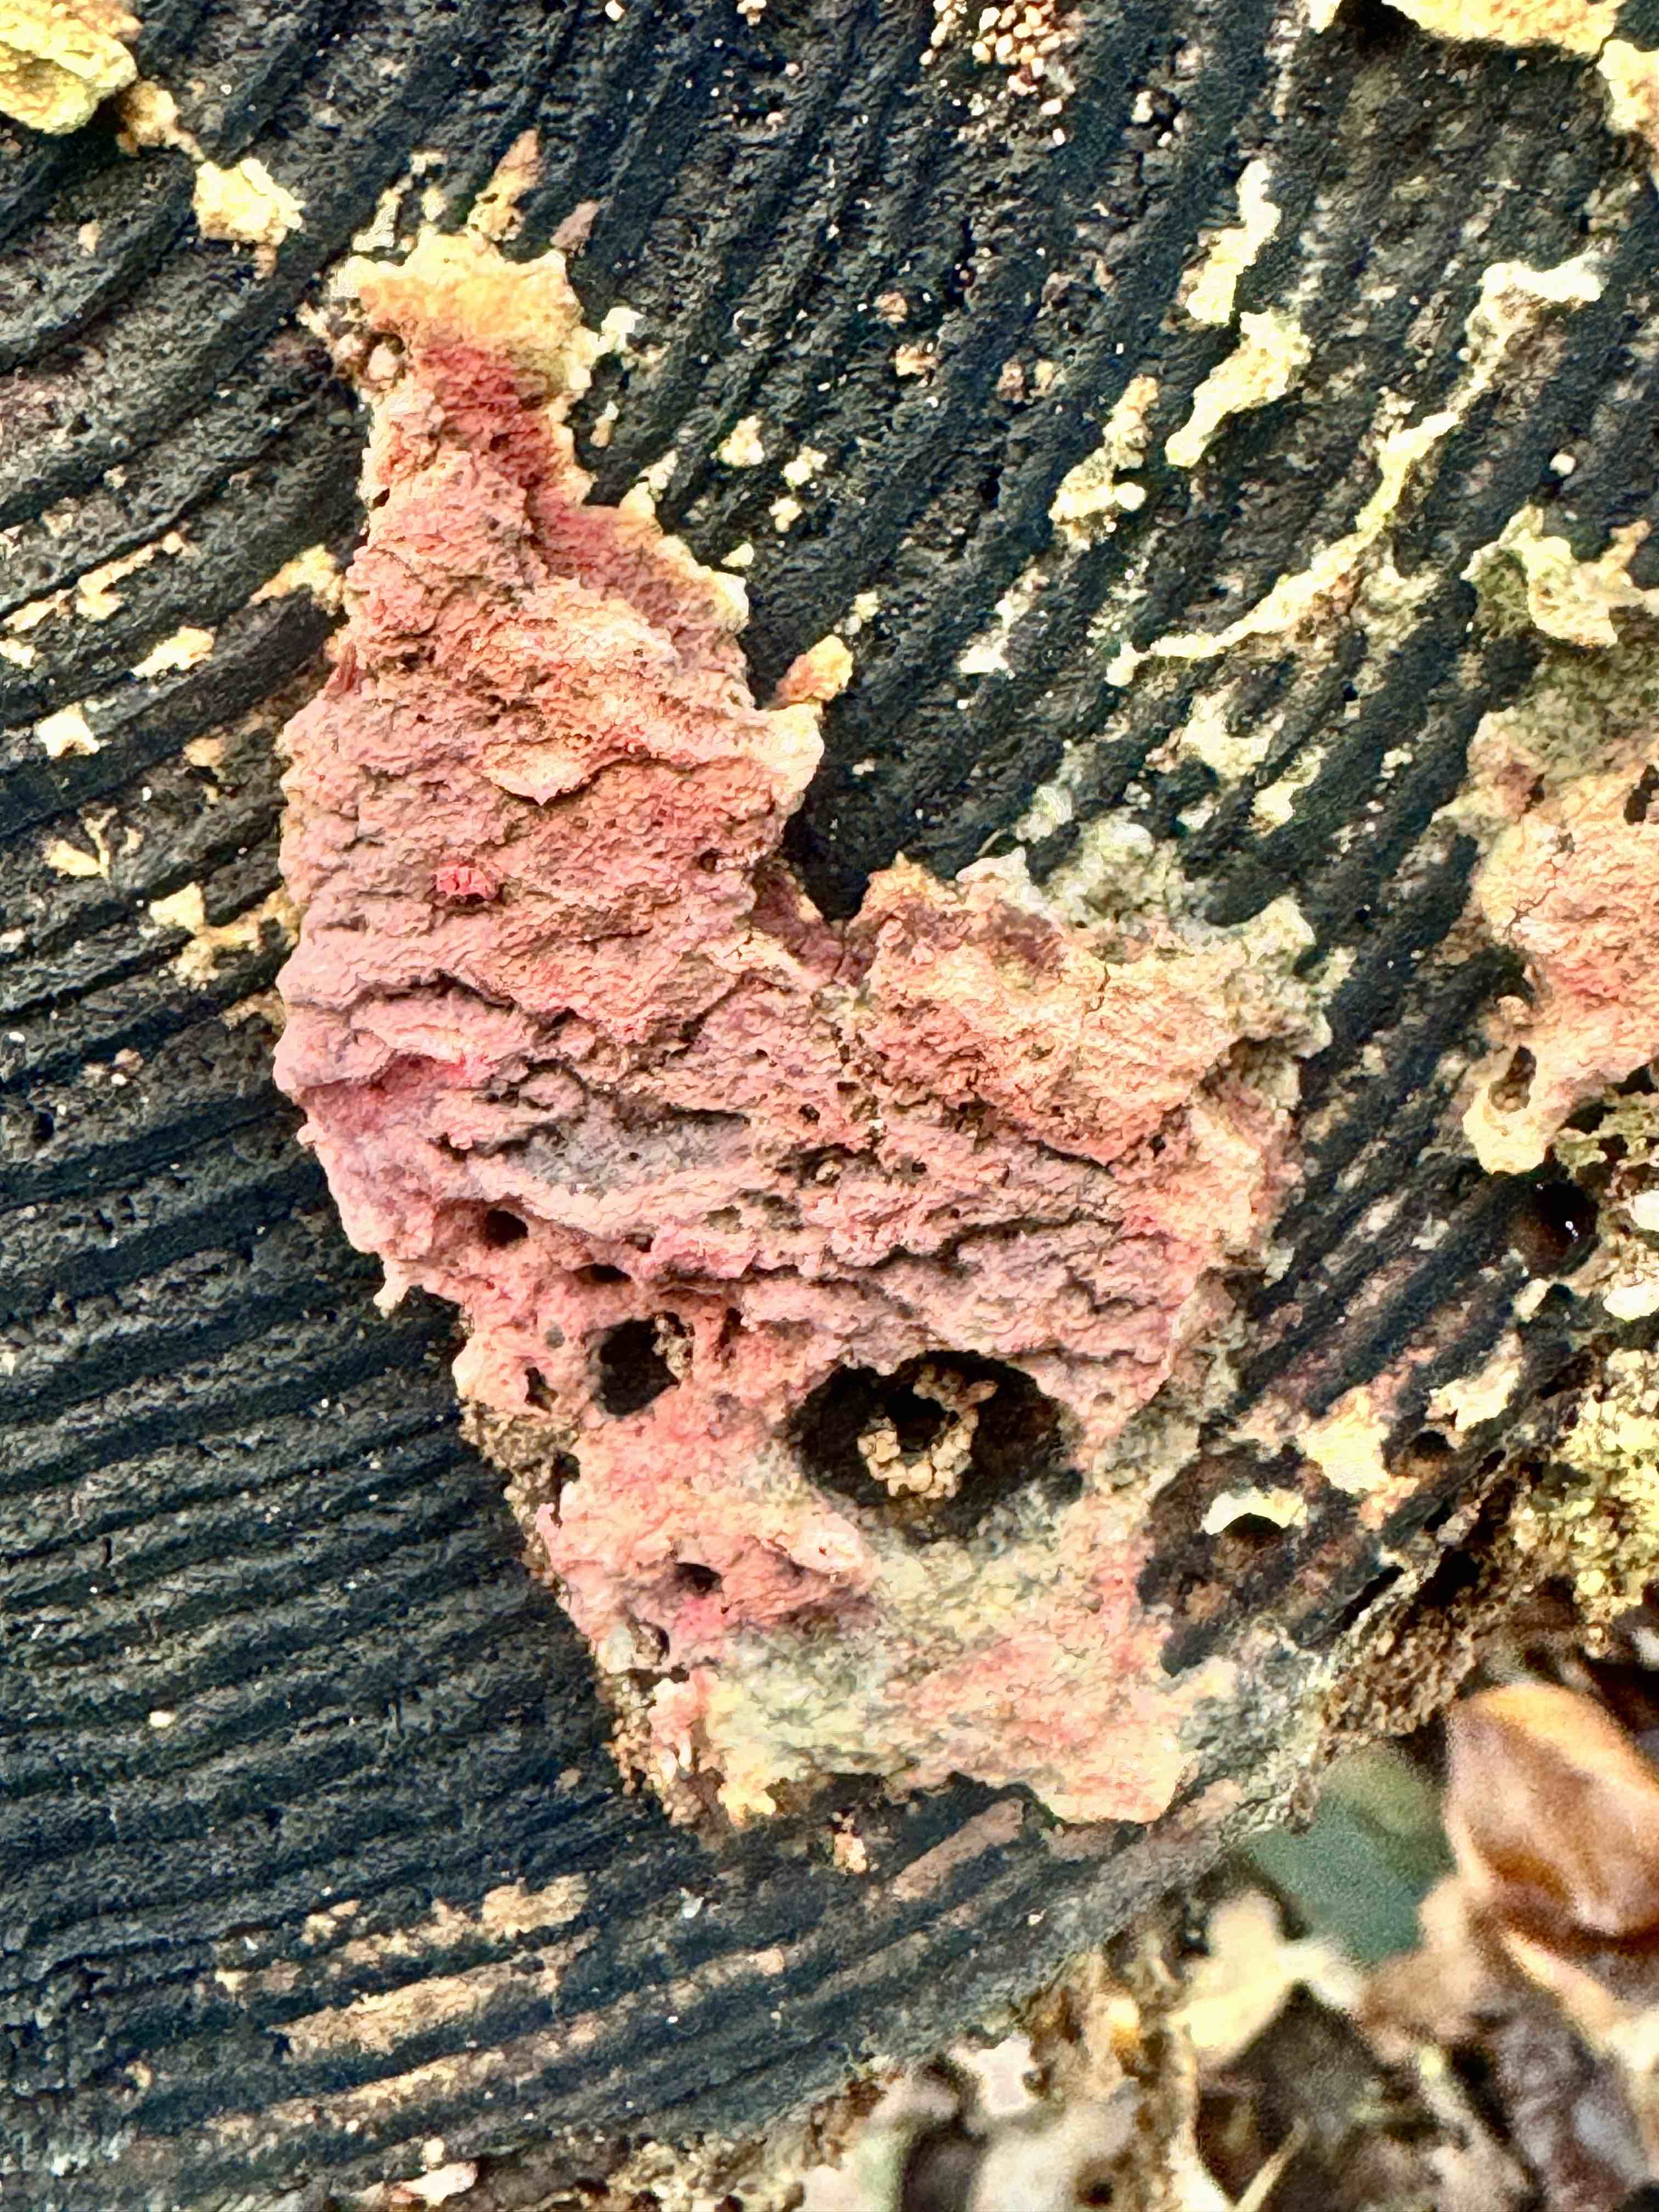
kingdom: Fungi
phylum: Basidiomycota
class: Agaricomycetes
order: Russulales
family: Peniophoraceae
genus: Peniophora
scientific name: Peniophora incarnata
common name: laksefarvet voksskind
